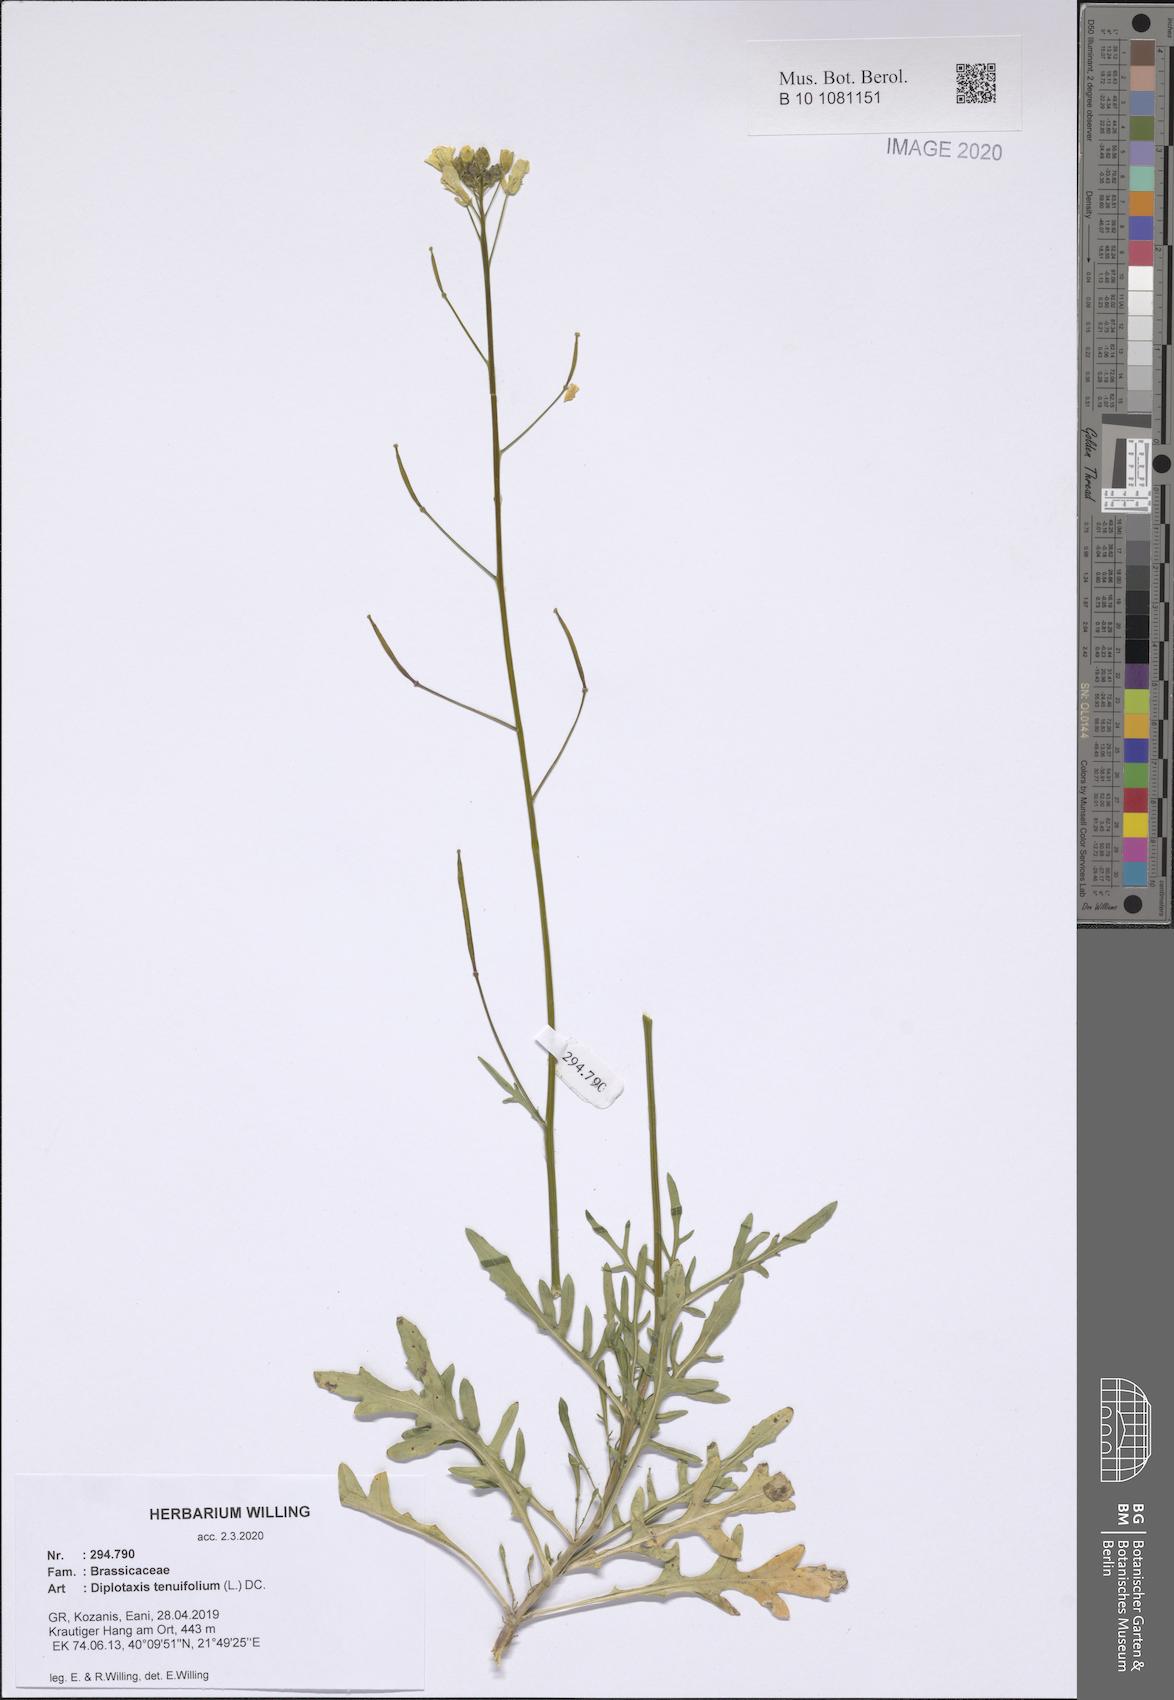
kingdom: Plantae
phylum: Tracheophyta
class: Magnoliopsida
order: Brassicales
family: Brassicaceae
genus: Diplotaxis
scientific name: Diplotaxis tenuifolia
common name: Perennial wall-rocket
